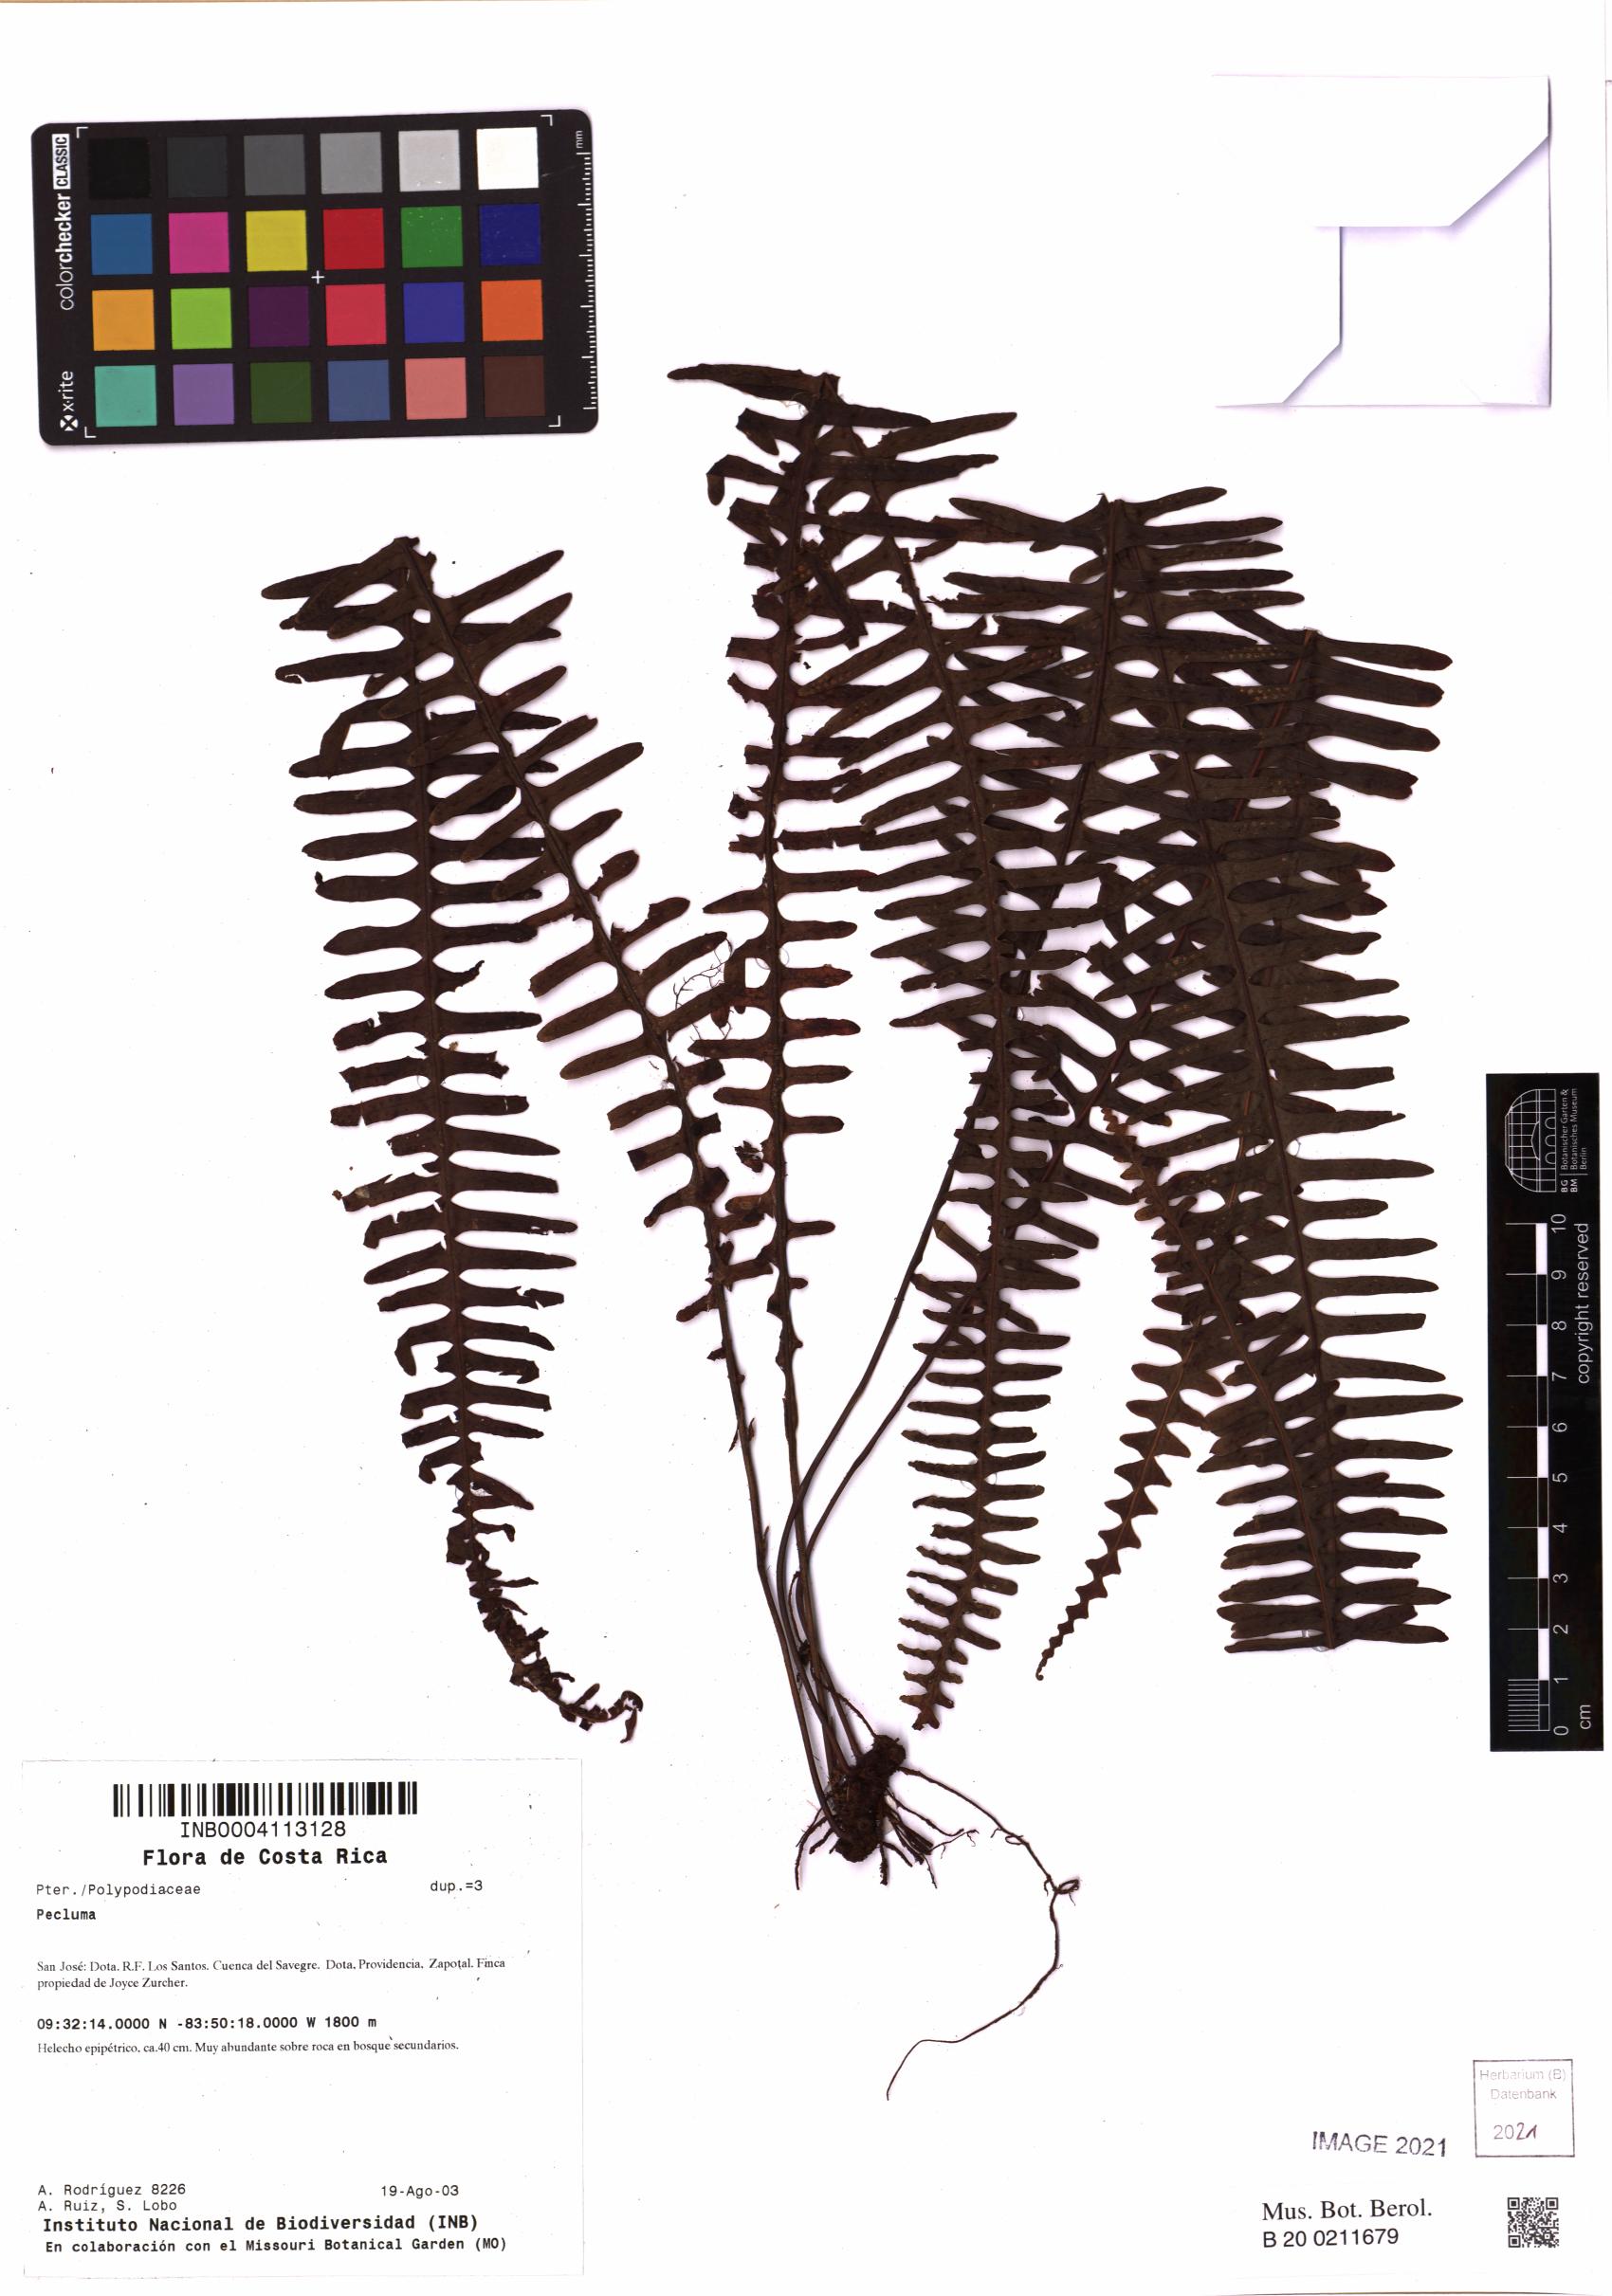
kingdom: Plantae
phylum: Tracheophyta
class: Polypodiopsida
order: Polypodiales
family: Polypodiaceae
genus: Pecluma
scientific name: Pecluma
